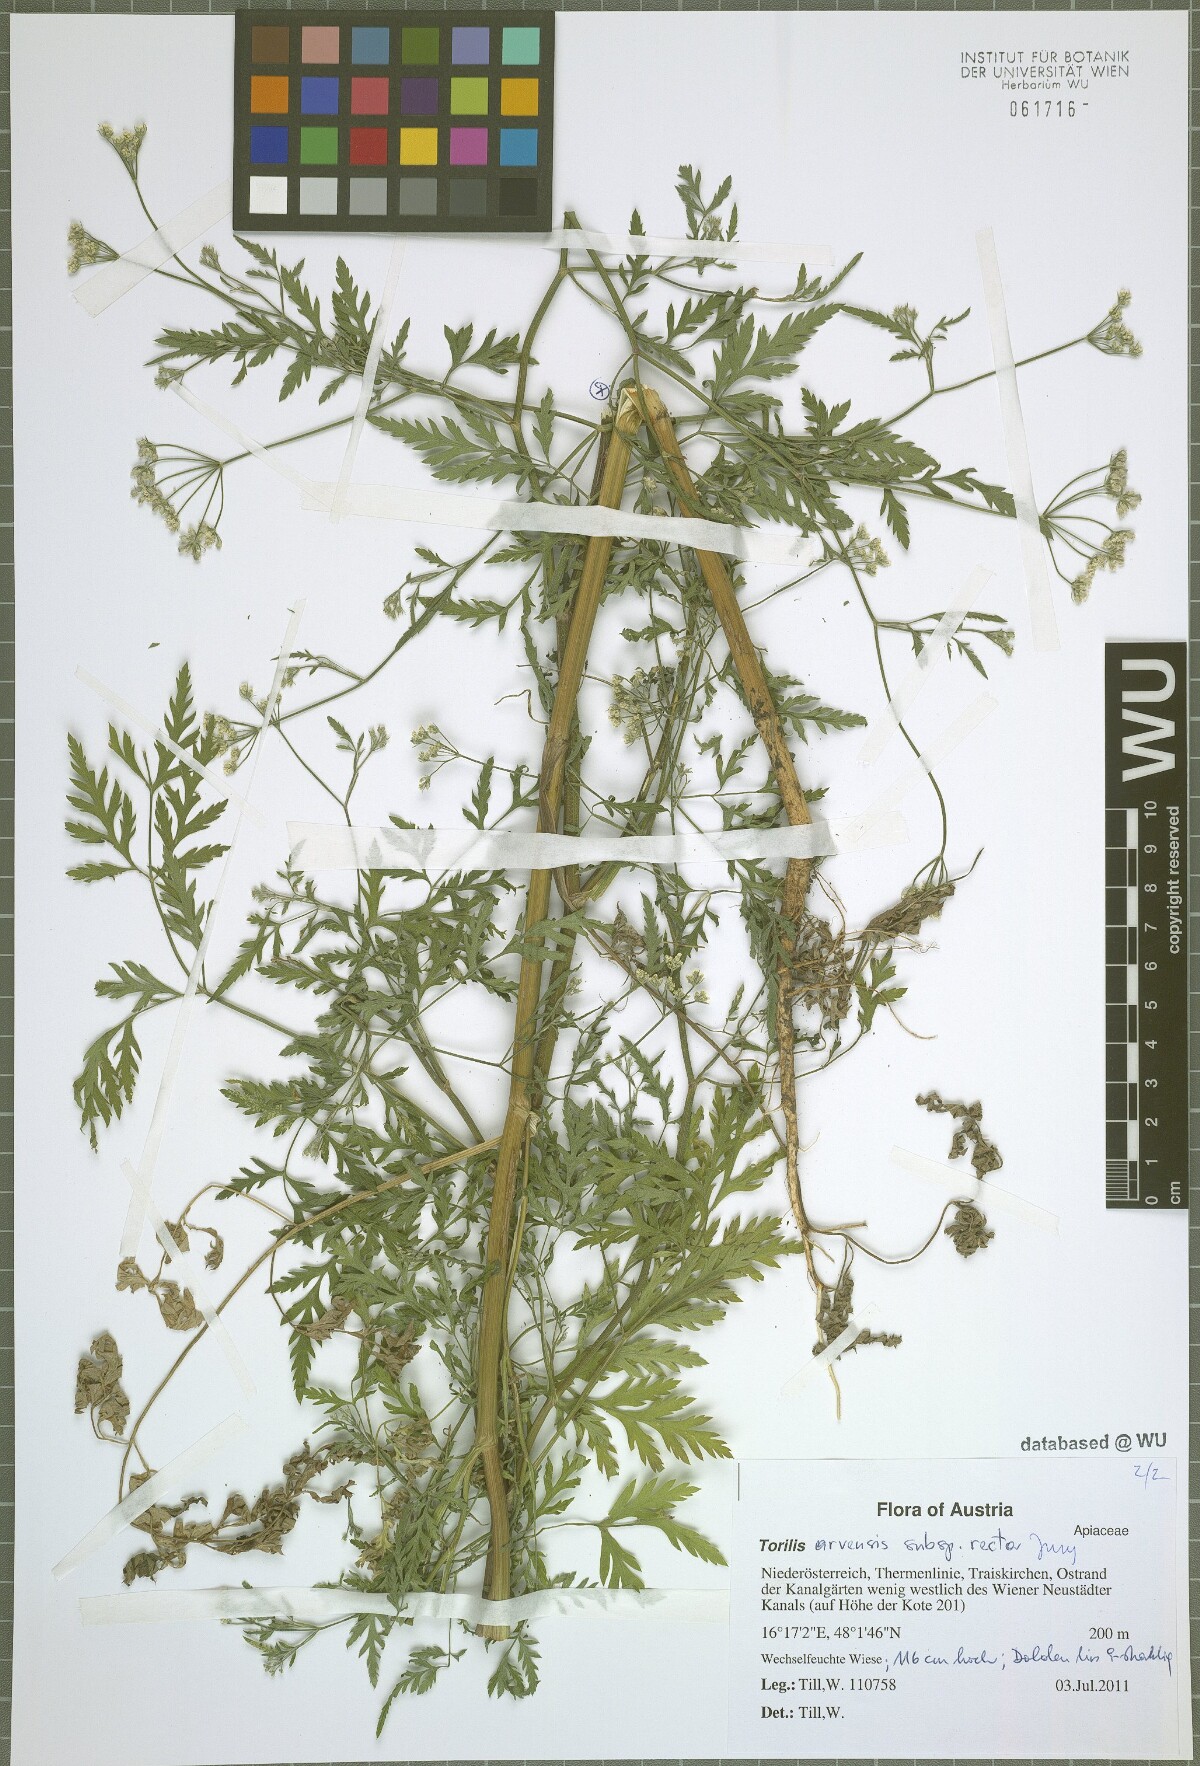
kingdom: Plantae
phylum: Tracheophyta
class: Magnoliopsida
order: Apiales
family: Apiaceae
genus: Torilis
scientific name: Torilis arvensis
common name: Spreading hedge-parsley
